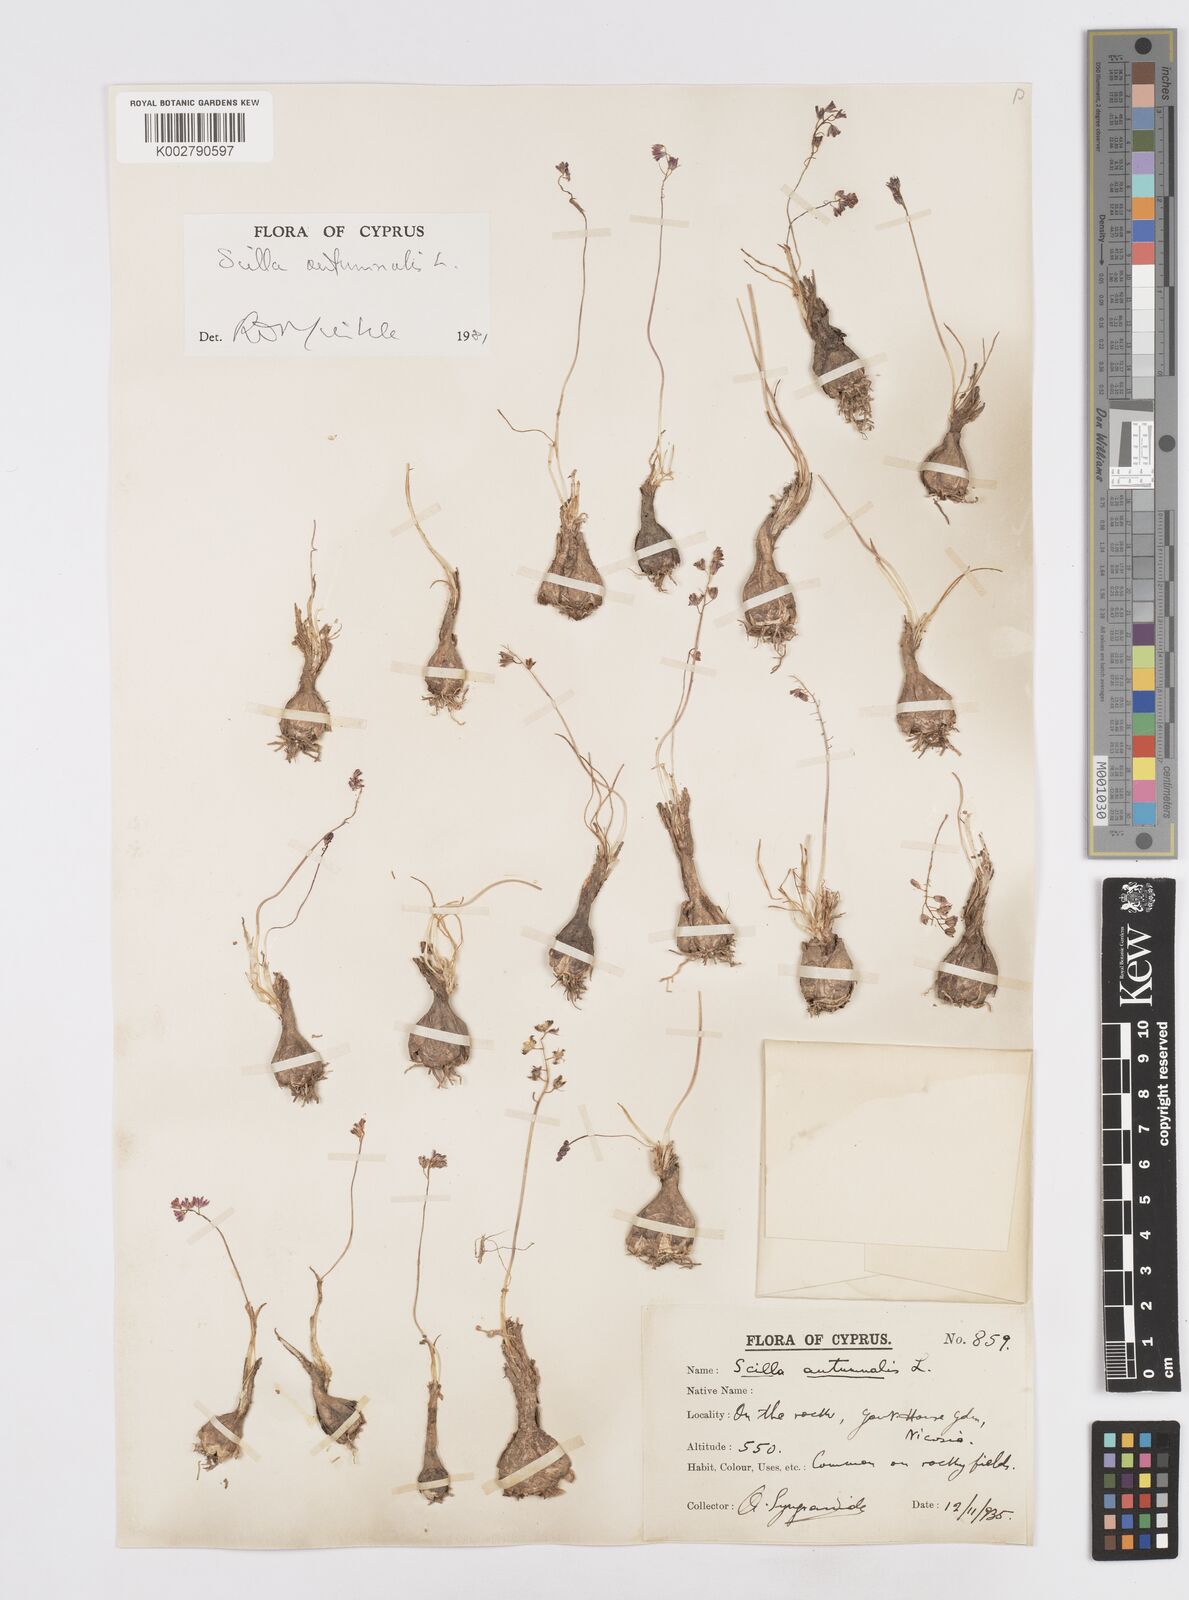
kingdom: Plantae
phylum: Tracheophyta
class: Liliopsida
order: Asparagales
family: Asparagaceae
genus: Prospero
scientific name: Prospero autumnale
